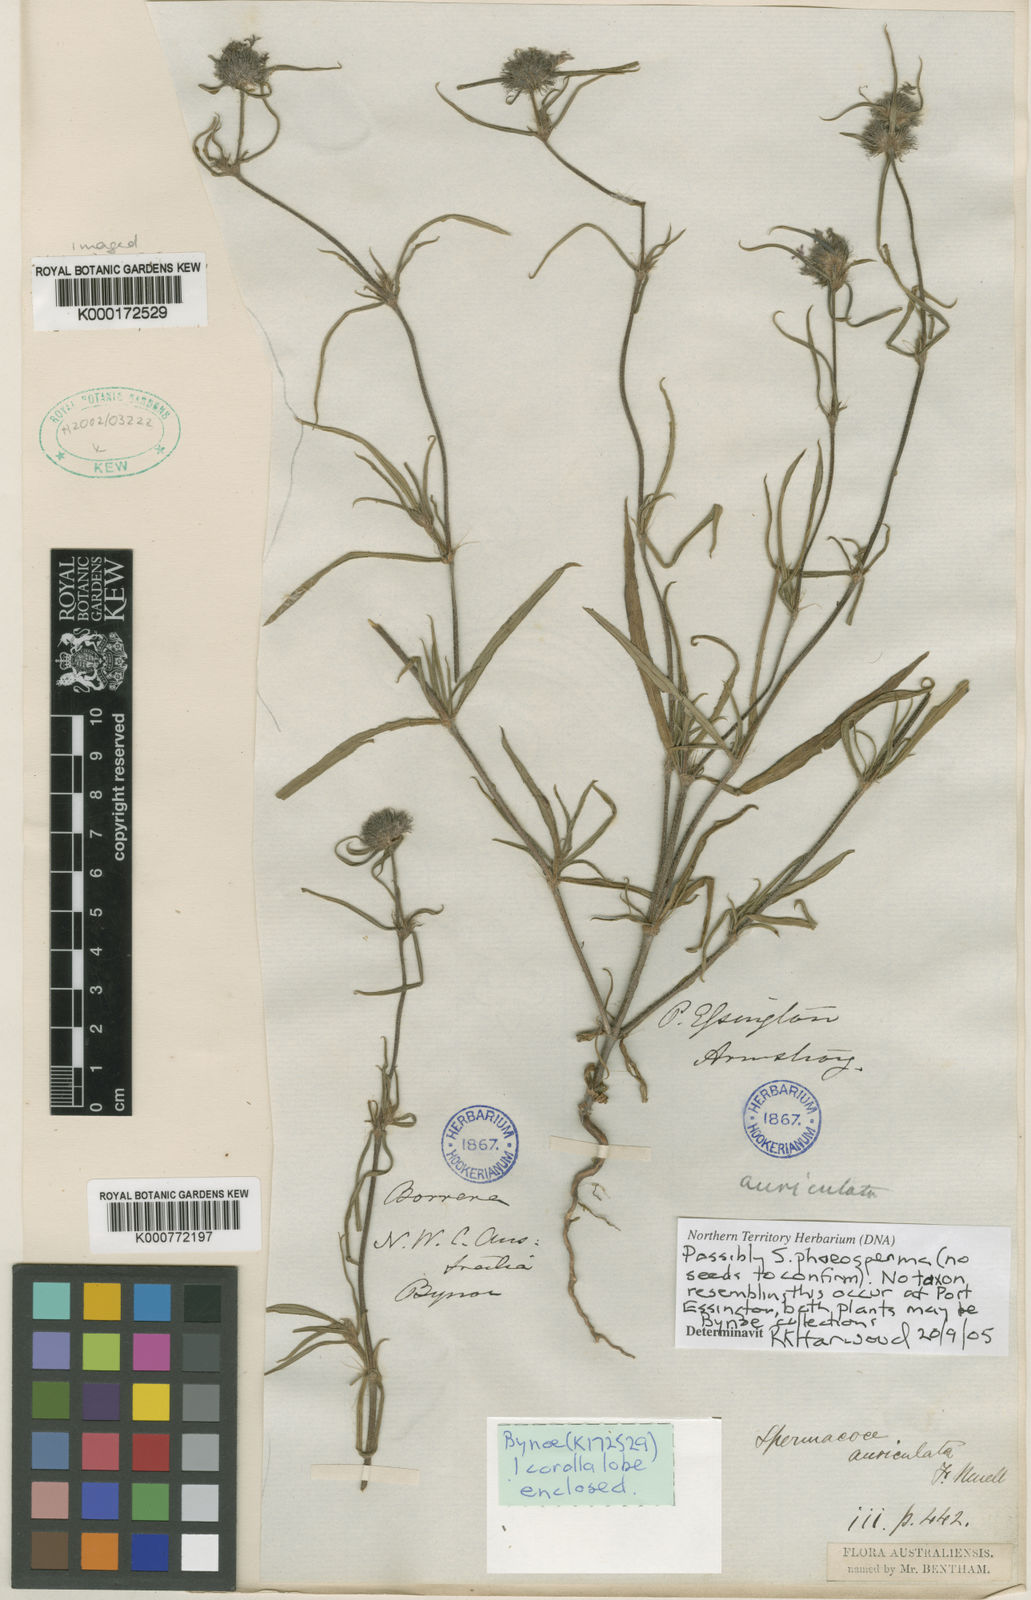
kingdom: Plantae
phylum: Tracheophyta
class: Magnoliopsida
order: Gentianales
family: Rubiaceae
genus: Spermacoce
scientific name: Spermacoce auriculata
